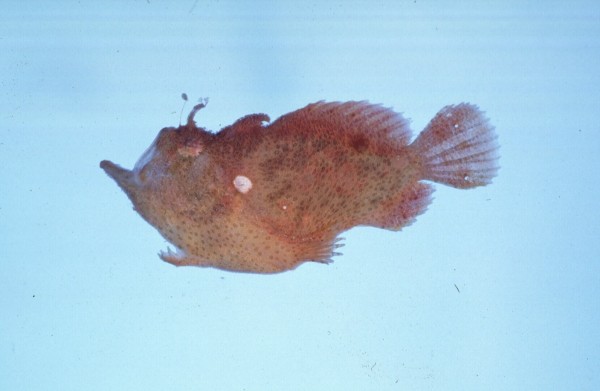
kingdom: Animalia
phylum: Chordata
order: Lophiiformes
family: Antennariidae
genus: Antennatus
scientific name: Antennatus coccineus
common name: Scarlet frogfish
